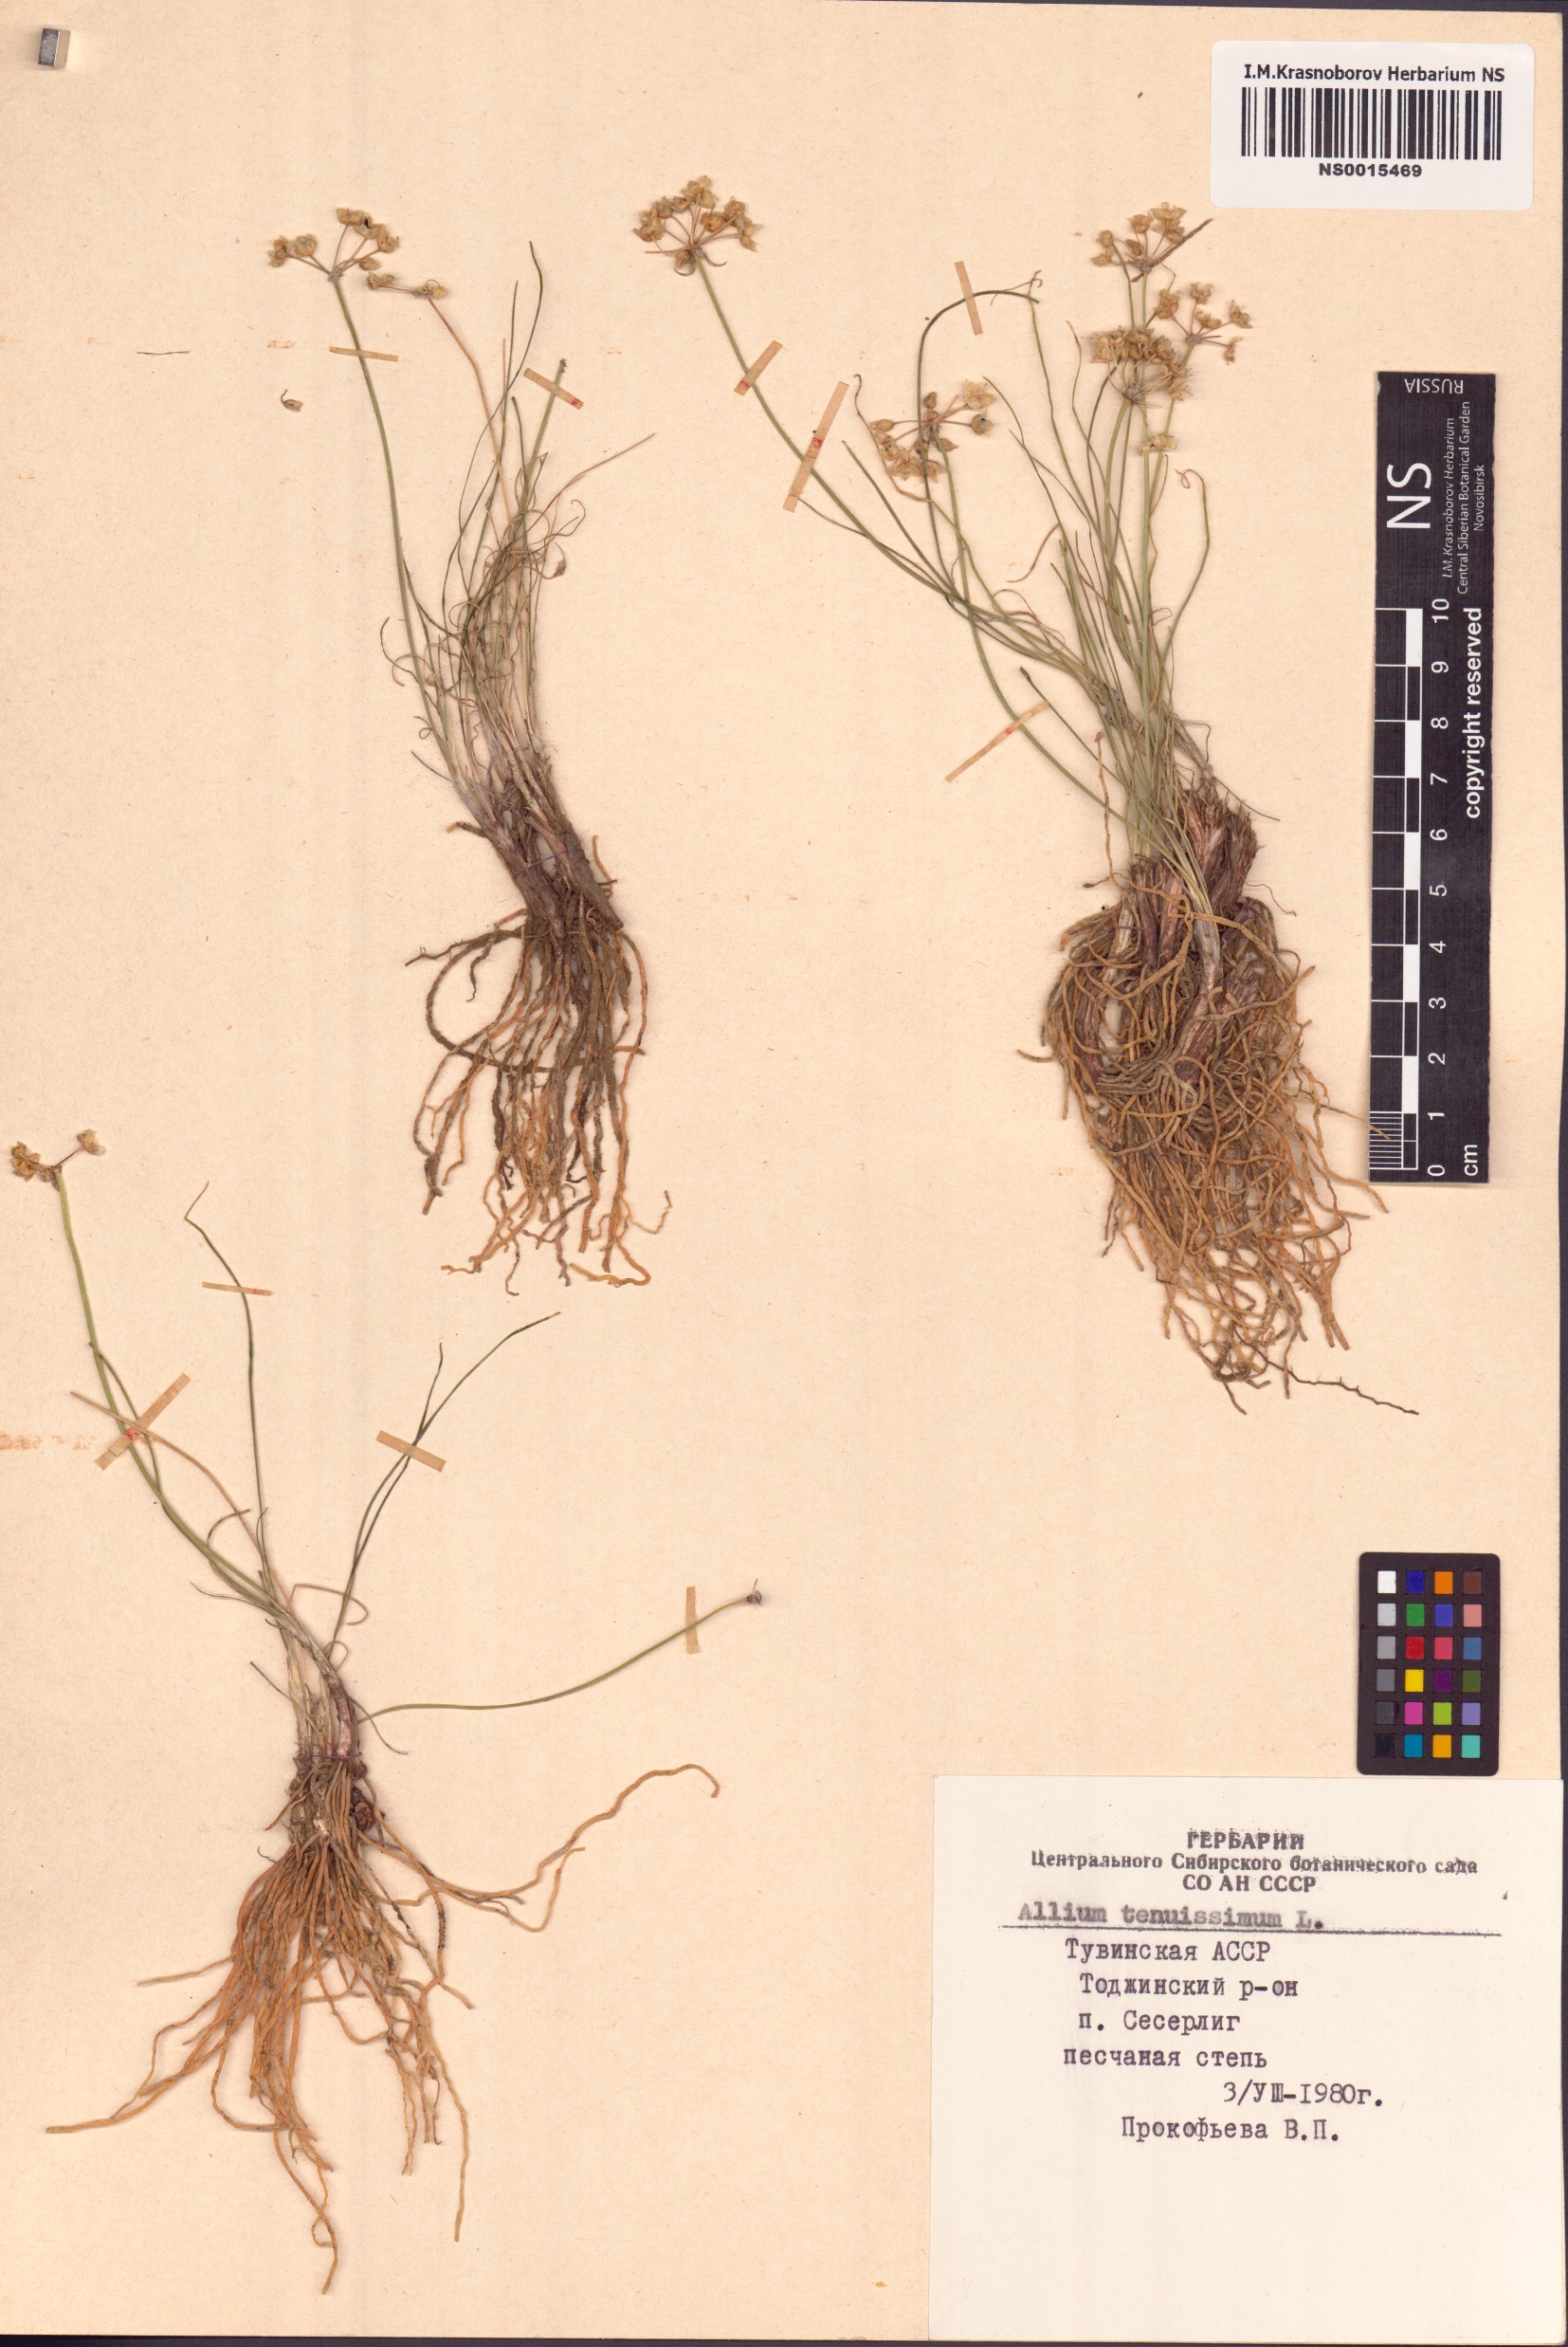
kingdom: Plantae
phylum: Tracheophyta
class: Liliopsida
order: Asparagales
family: Amaryllidaceae
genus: Allium
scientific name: Allium tenuissimum
